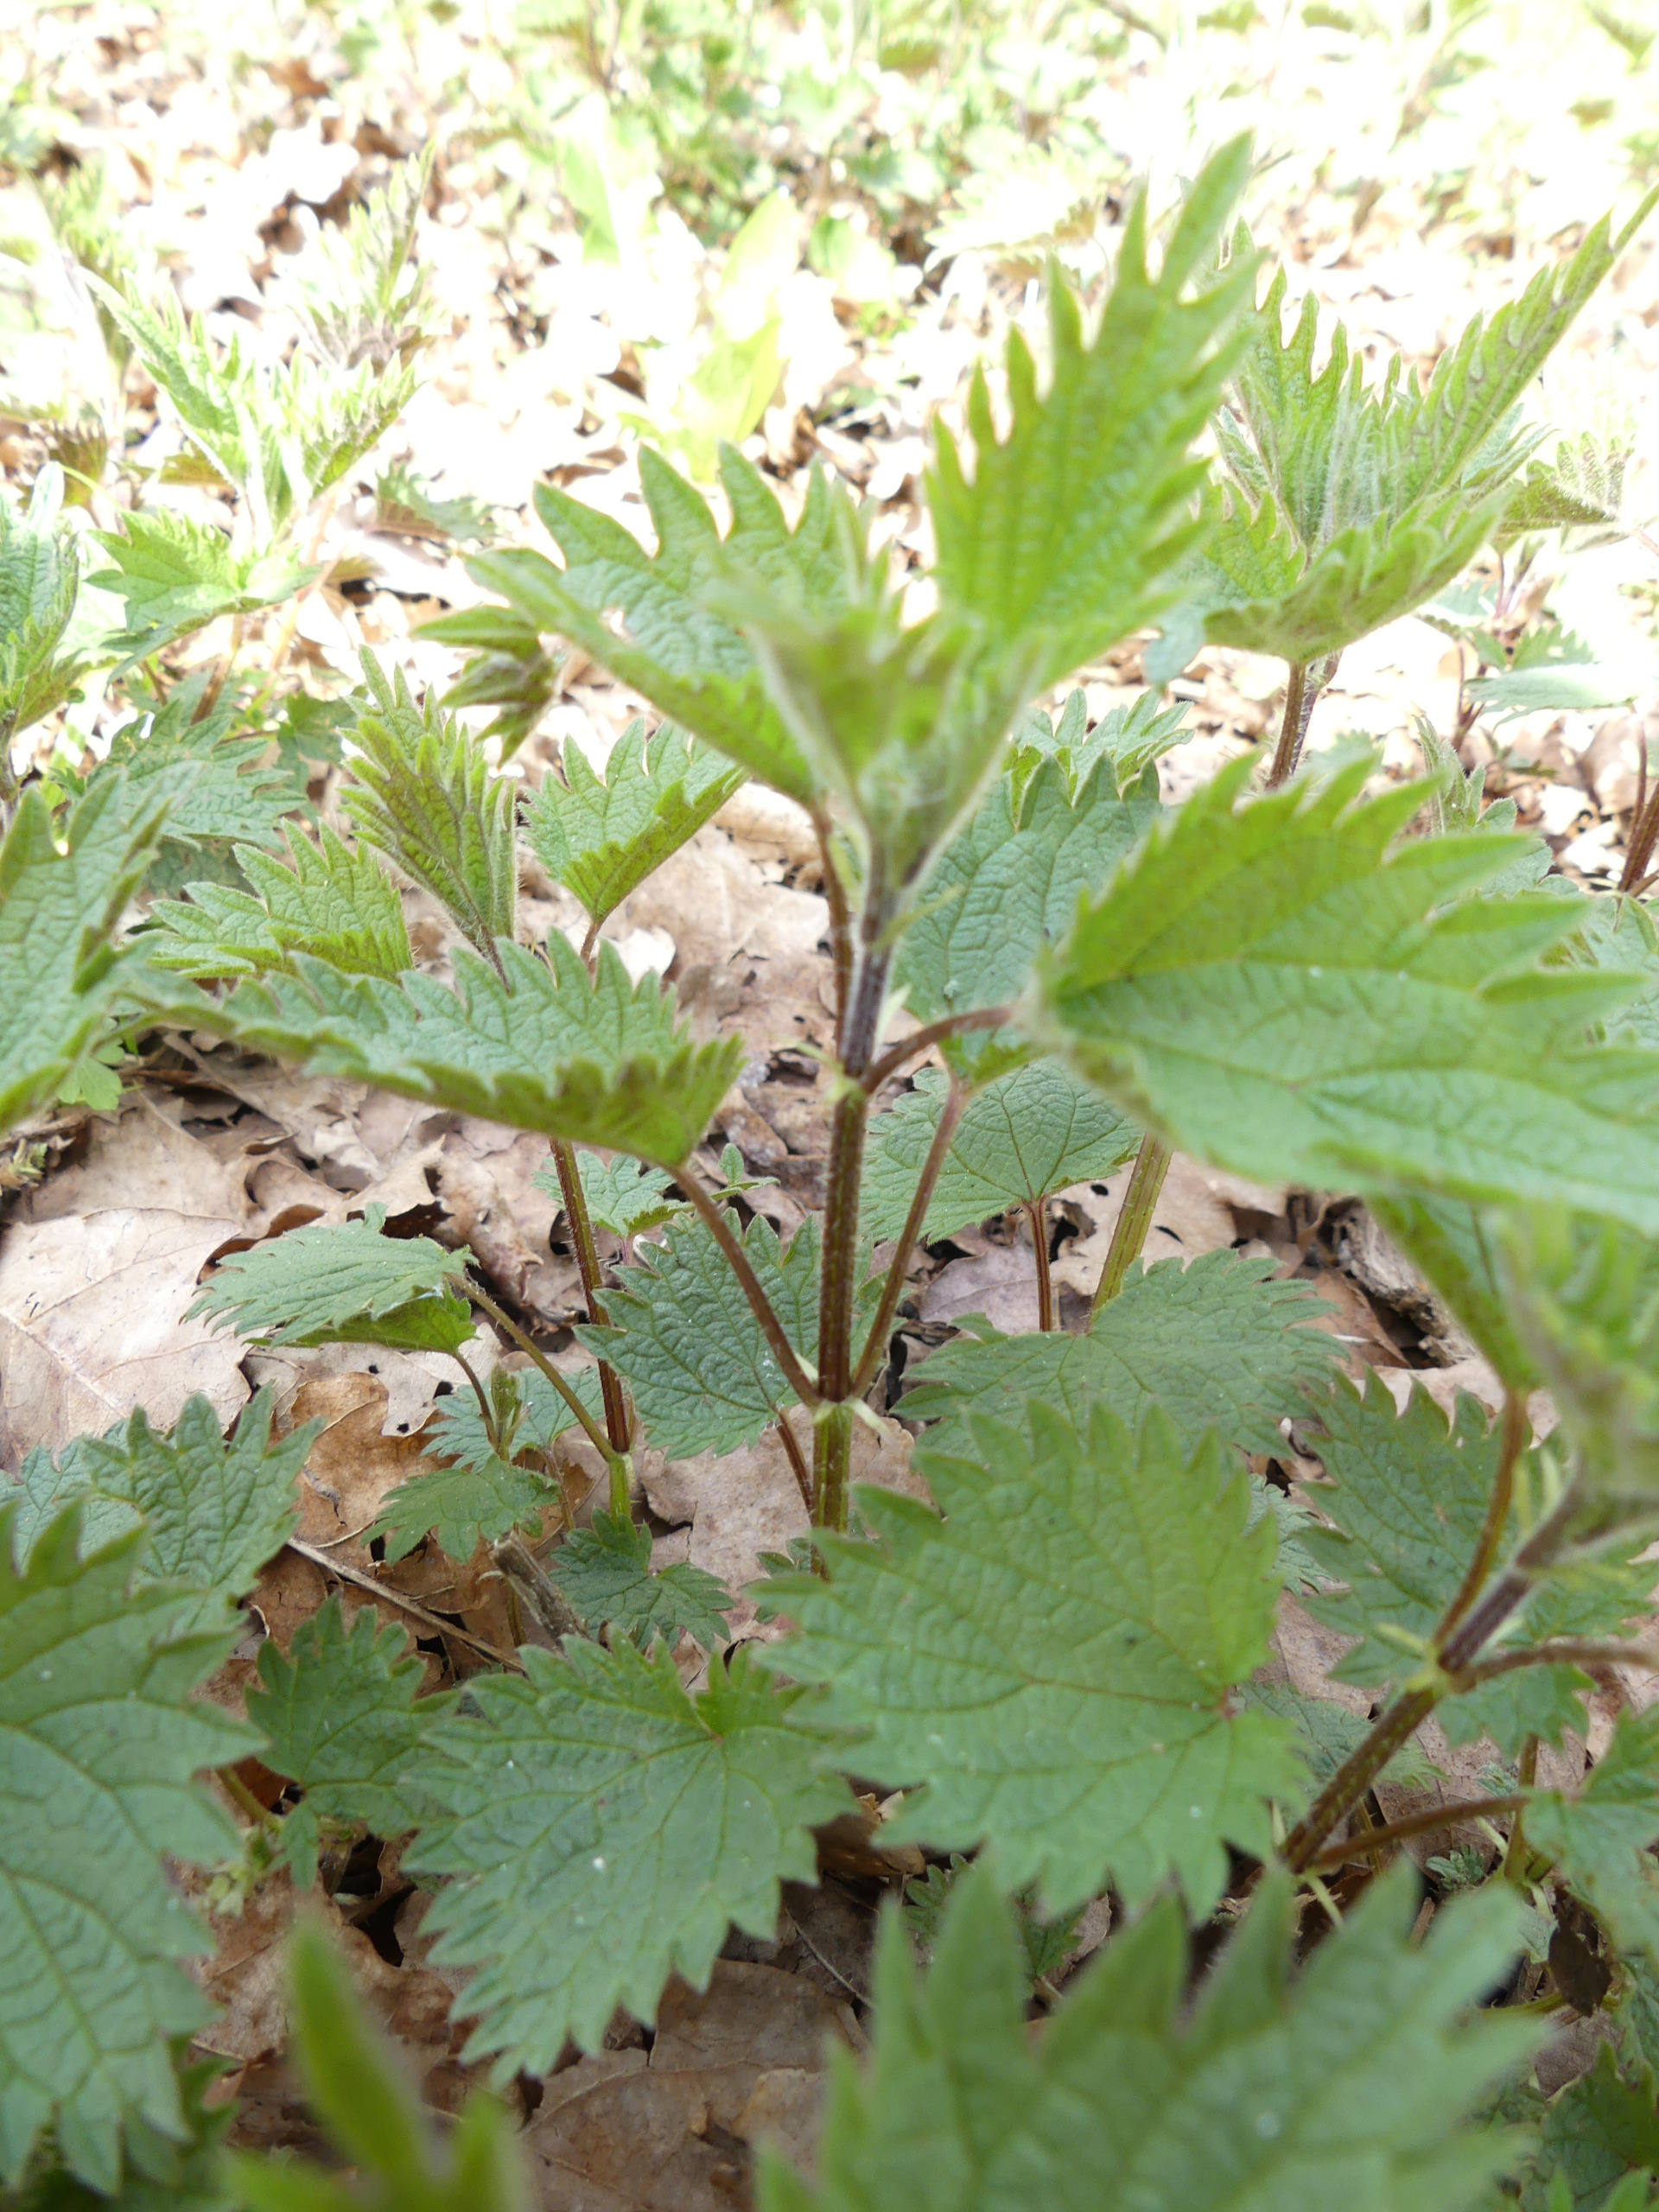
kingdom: Plantae
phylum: Tracheophyta
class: Magnoliopsida
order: Rosales
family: Urticaceae
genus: Urtica
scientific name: Urtica dioica
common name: Stor nælde
